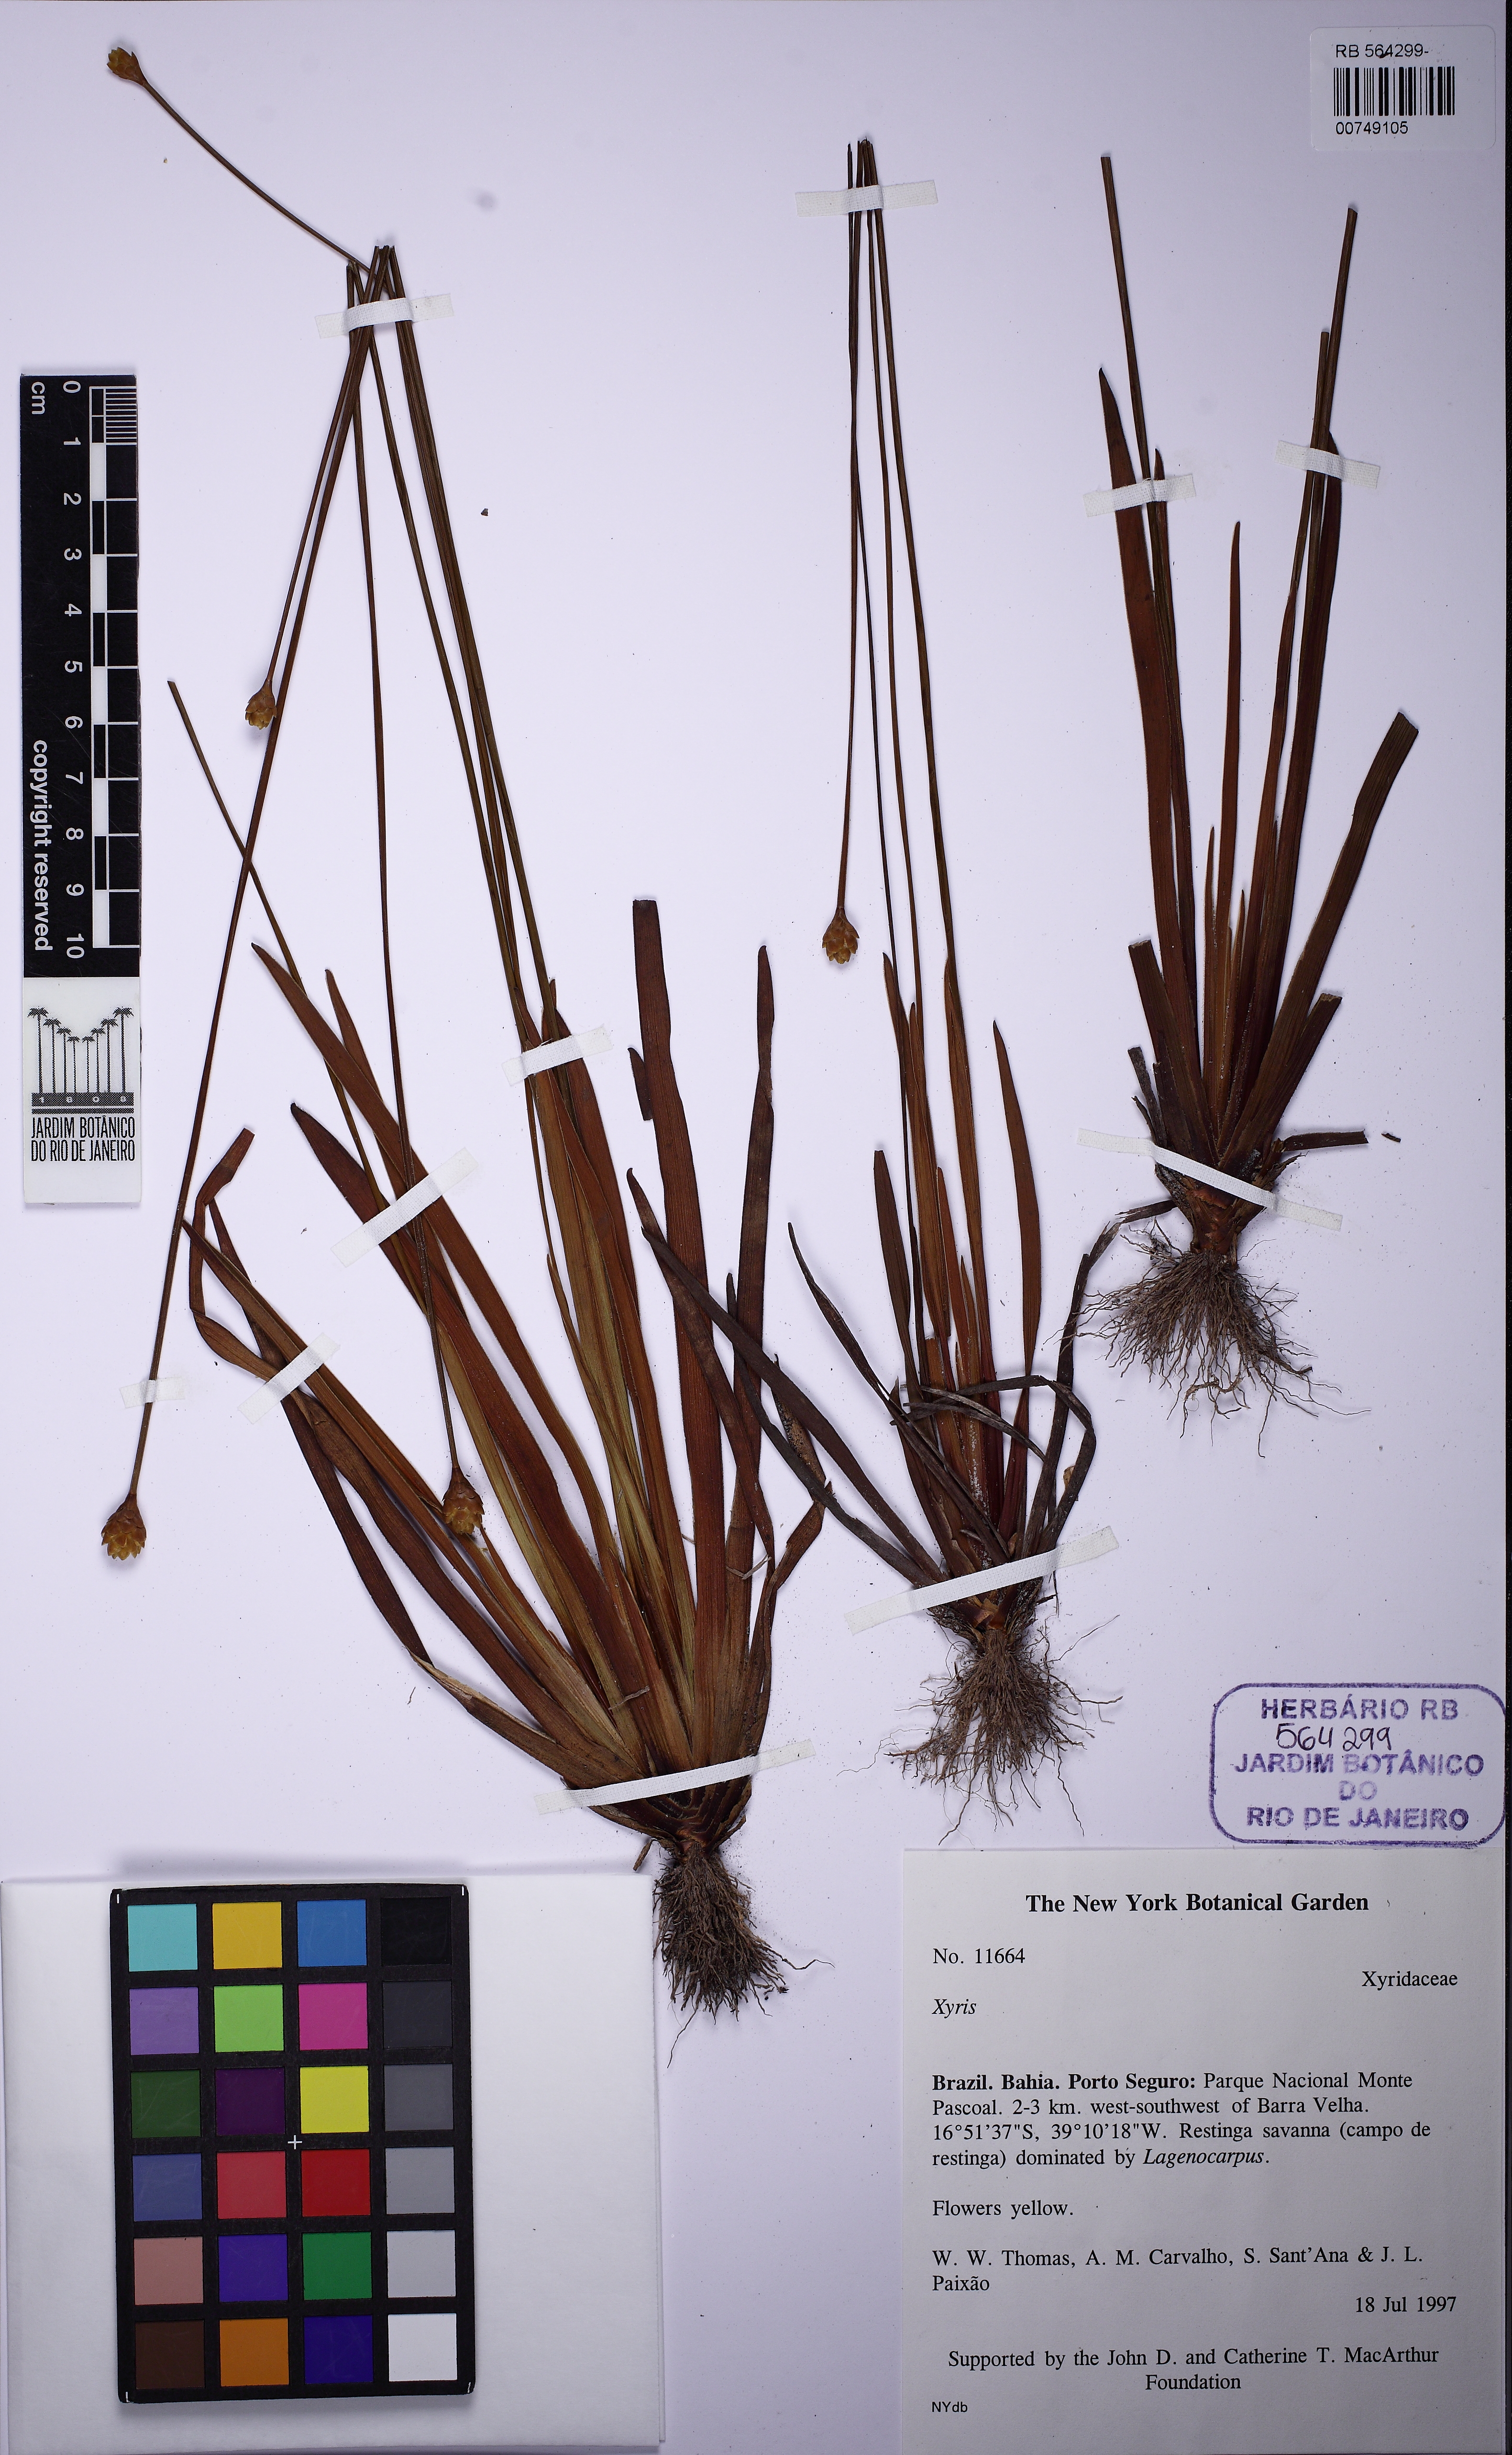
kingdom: Plantae
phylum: Tracheophyta
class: Liliopsida
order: Poales
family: Xyridaceae
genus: Xyris
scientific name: Xyris ciliata
